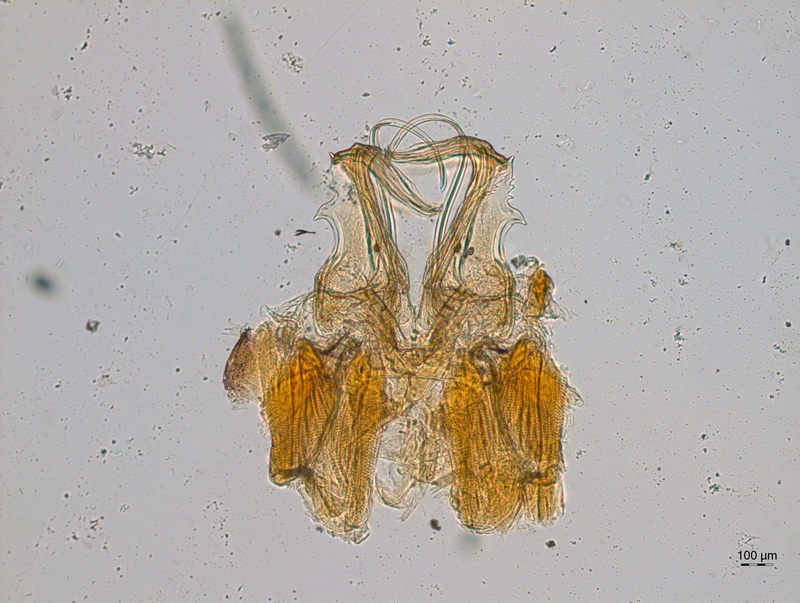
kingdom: Animalia
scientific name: Animalia
